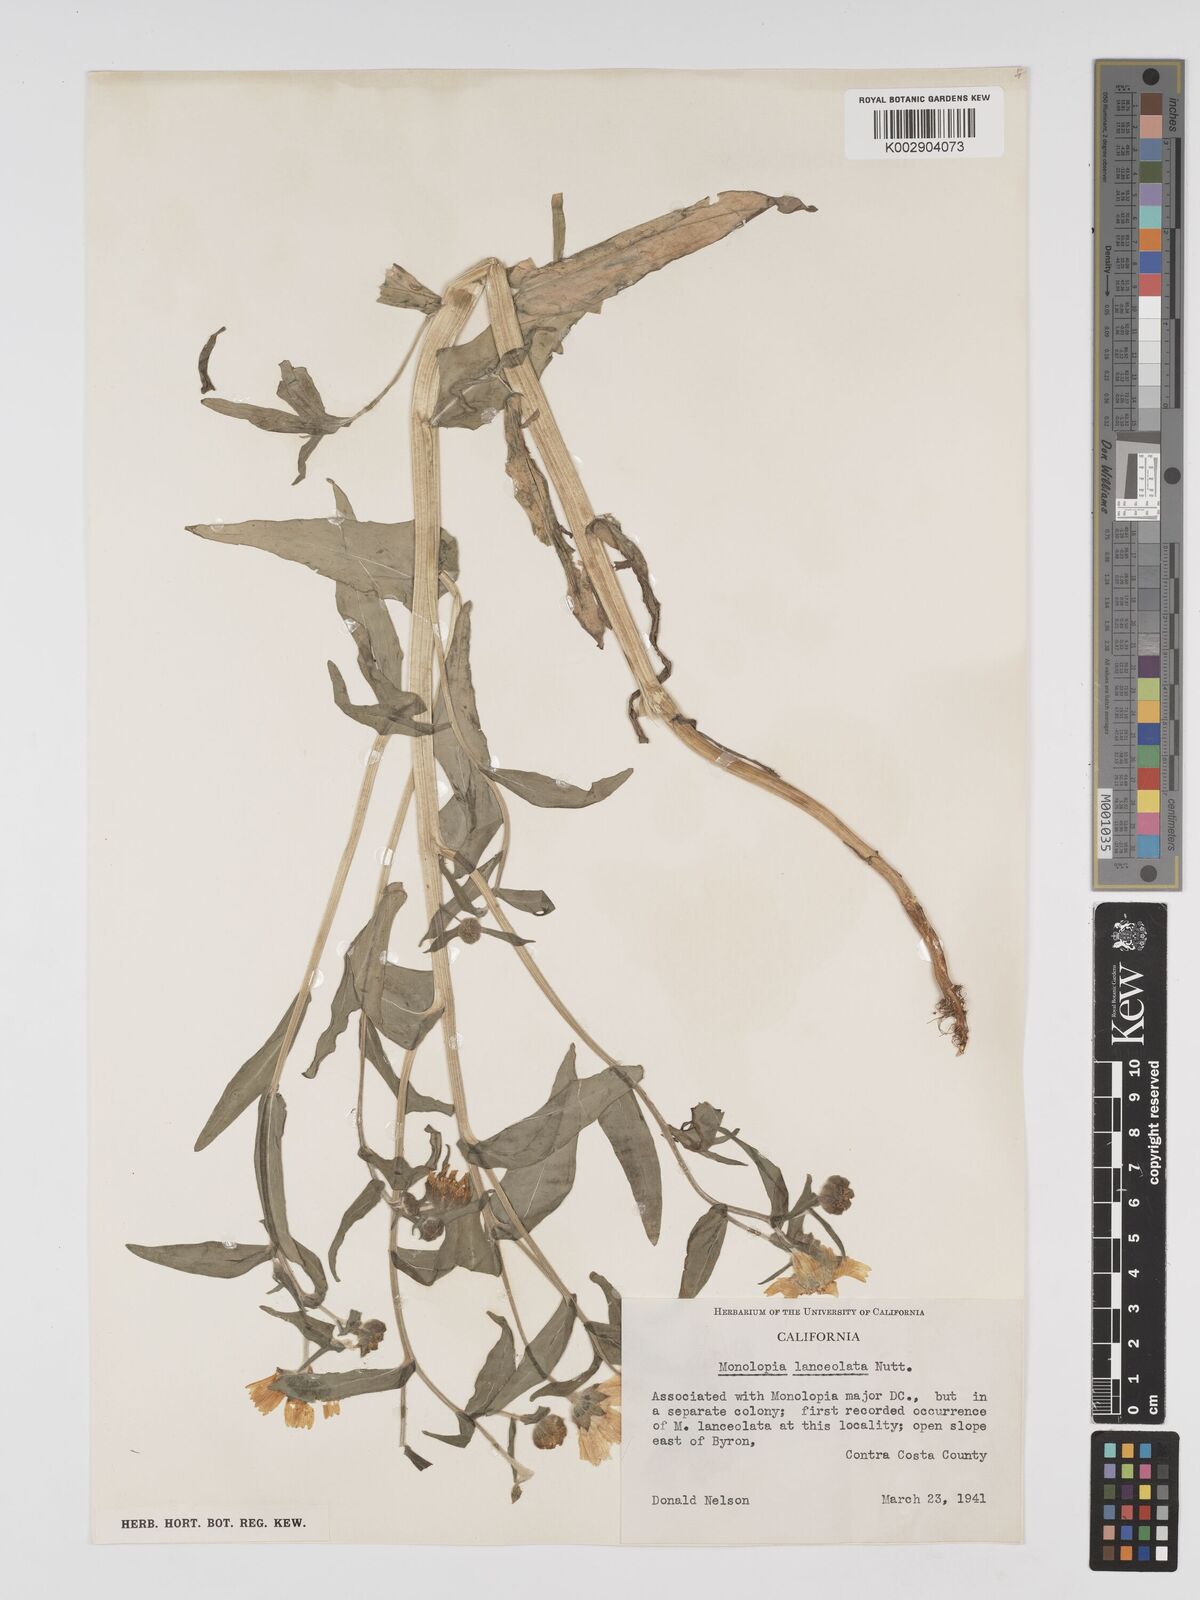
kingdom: Plantae
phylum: Tracheophyta
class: Magnoliopsida
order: Asterales
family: Asteraceae
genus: Monolopia
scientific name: Monolopia lanceolata
